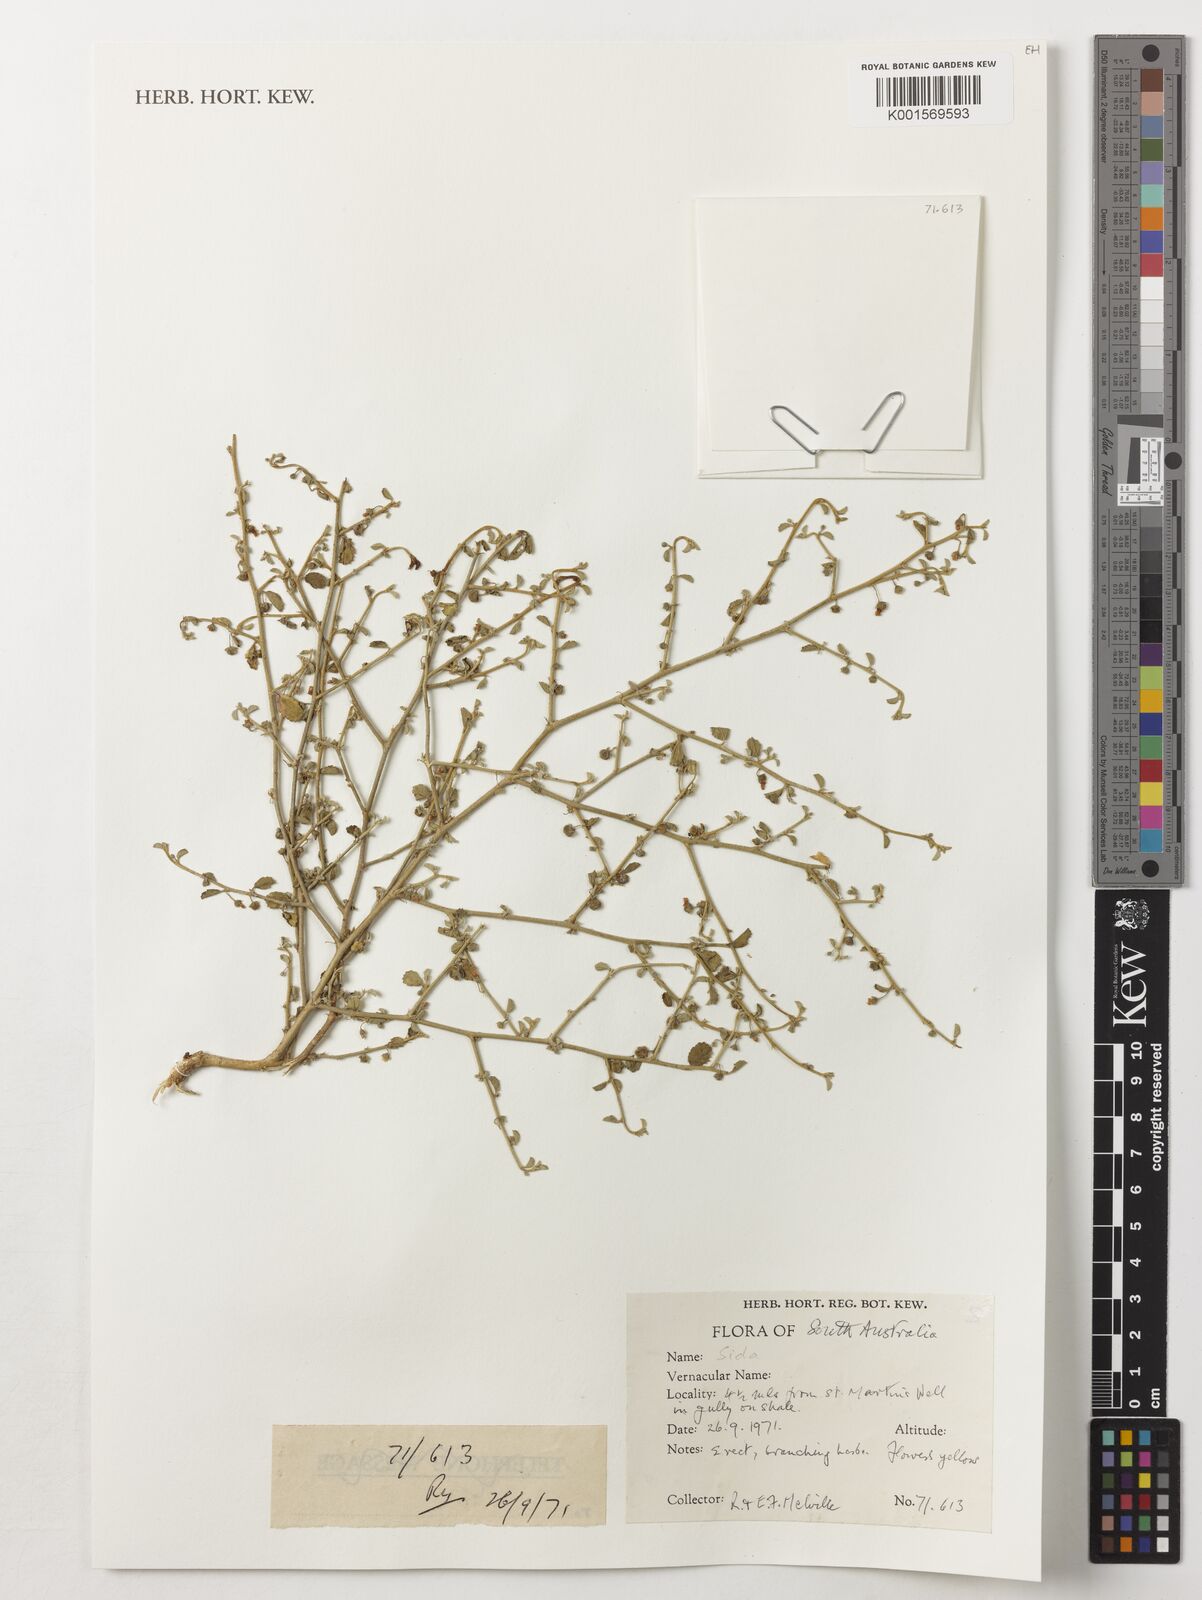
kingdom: Plantae
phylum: Tracheophyta
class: Magnoliopsida
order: Malvales
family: Malvaceae
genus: Sida
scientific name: Sida
